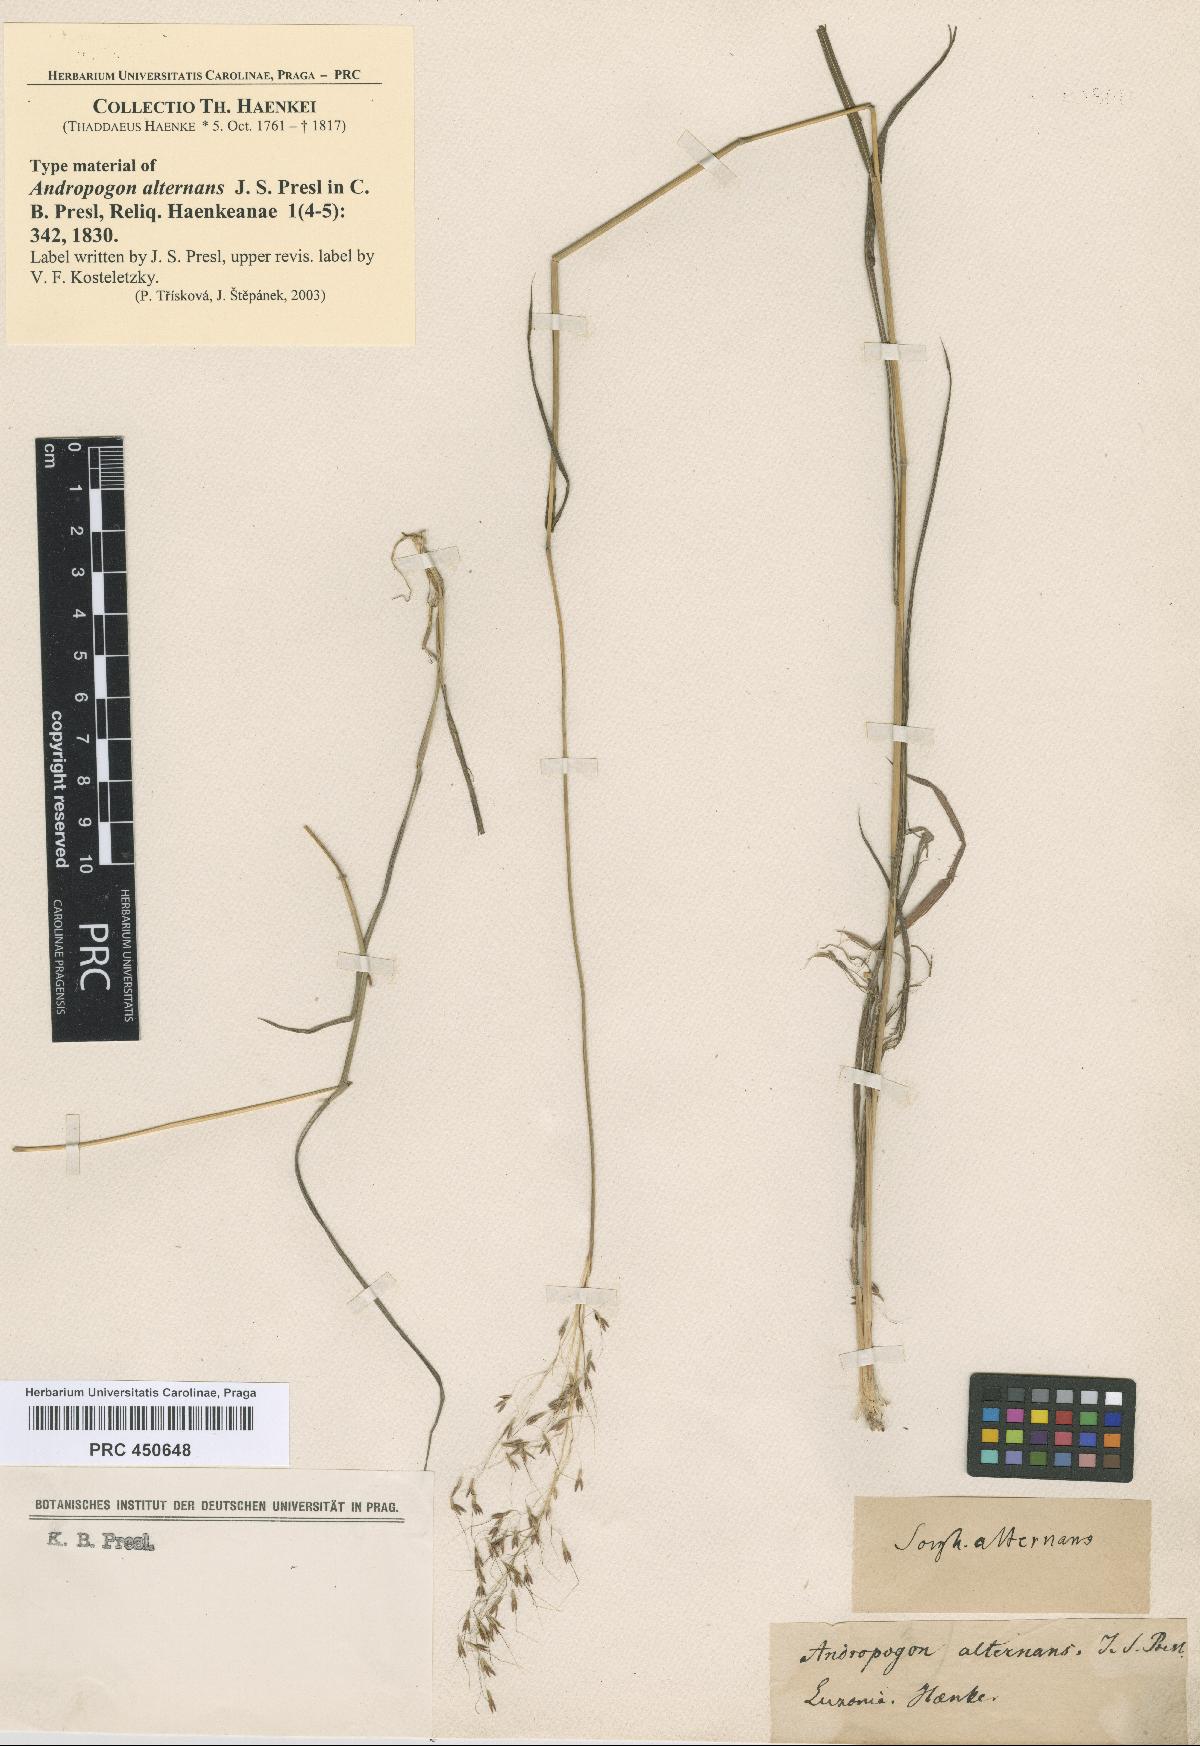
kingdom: Plantae
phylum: Tracheophyta
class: Liliopsida
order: Poales
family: Poaceae
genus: Capillipedium
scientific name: Capillipedium parviflorum
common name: Golden-beard
